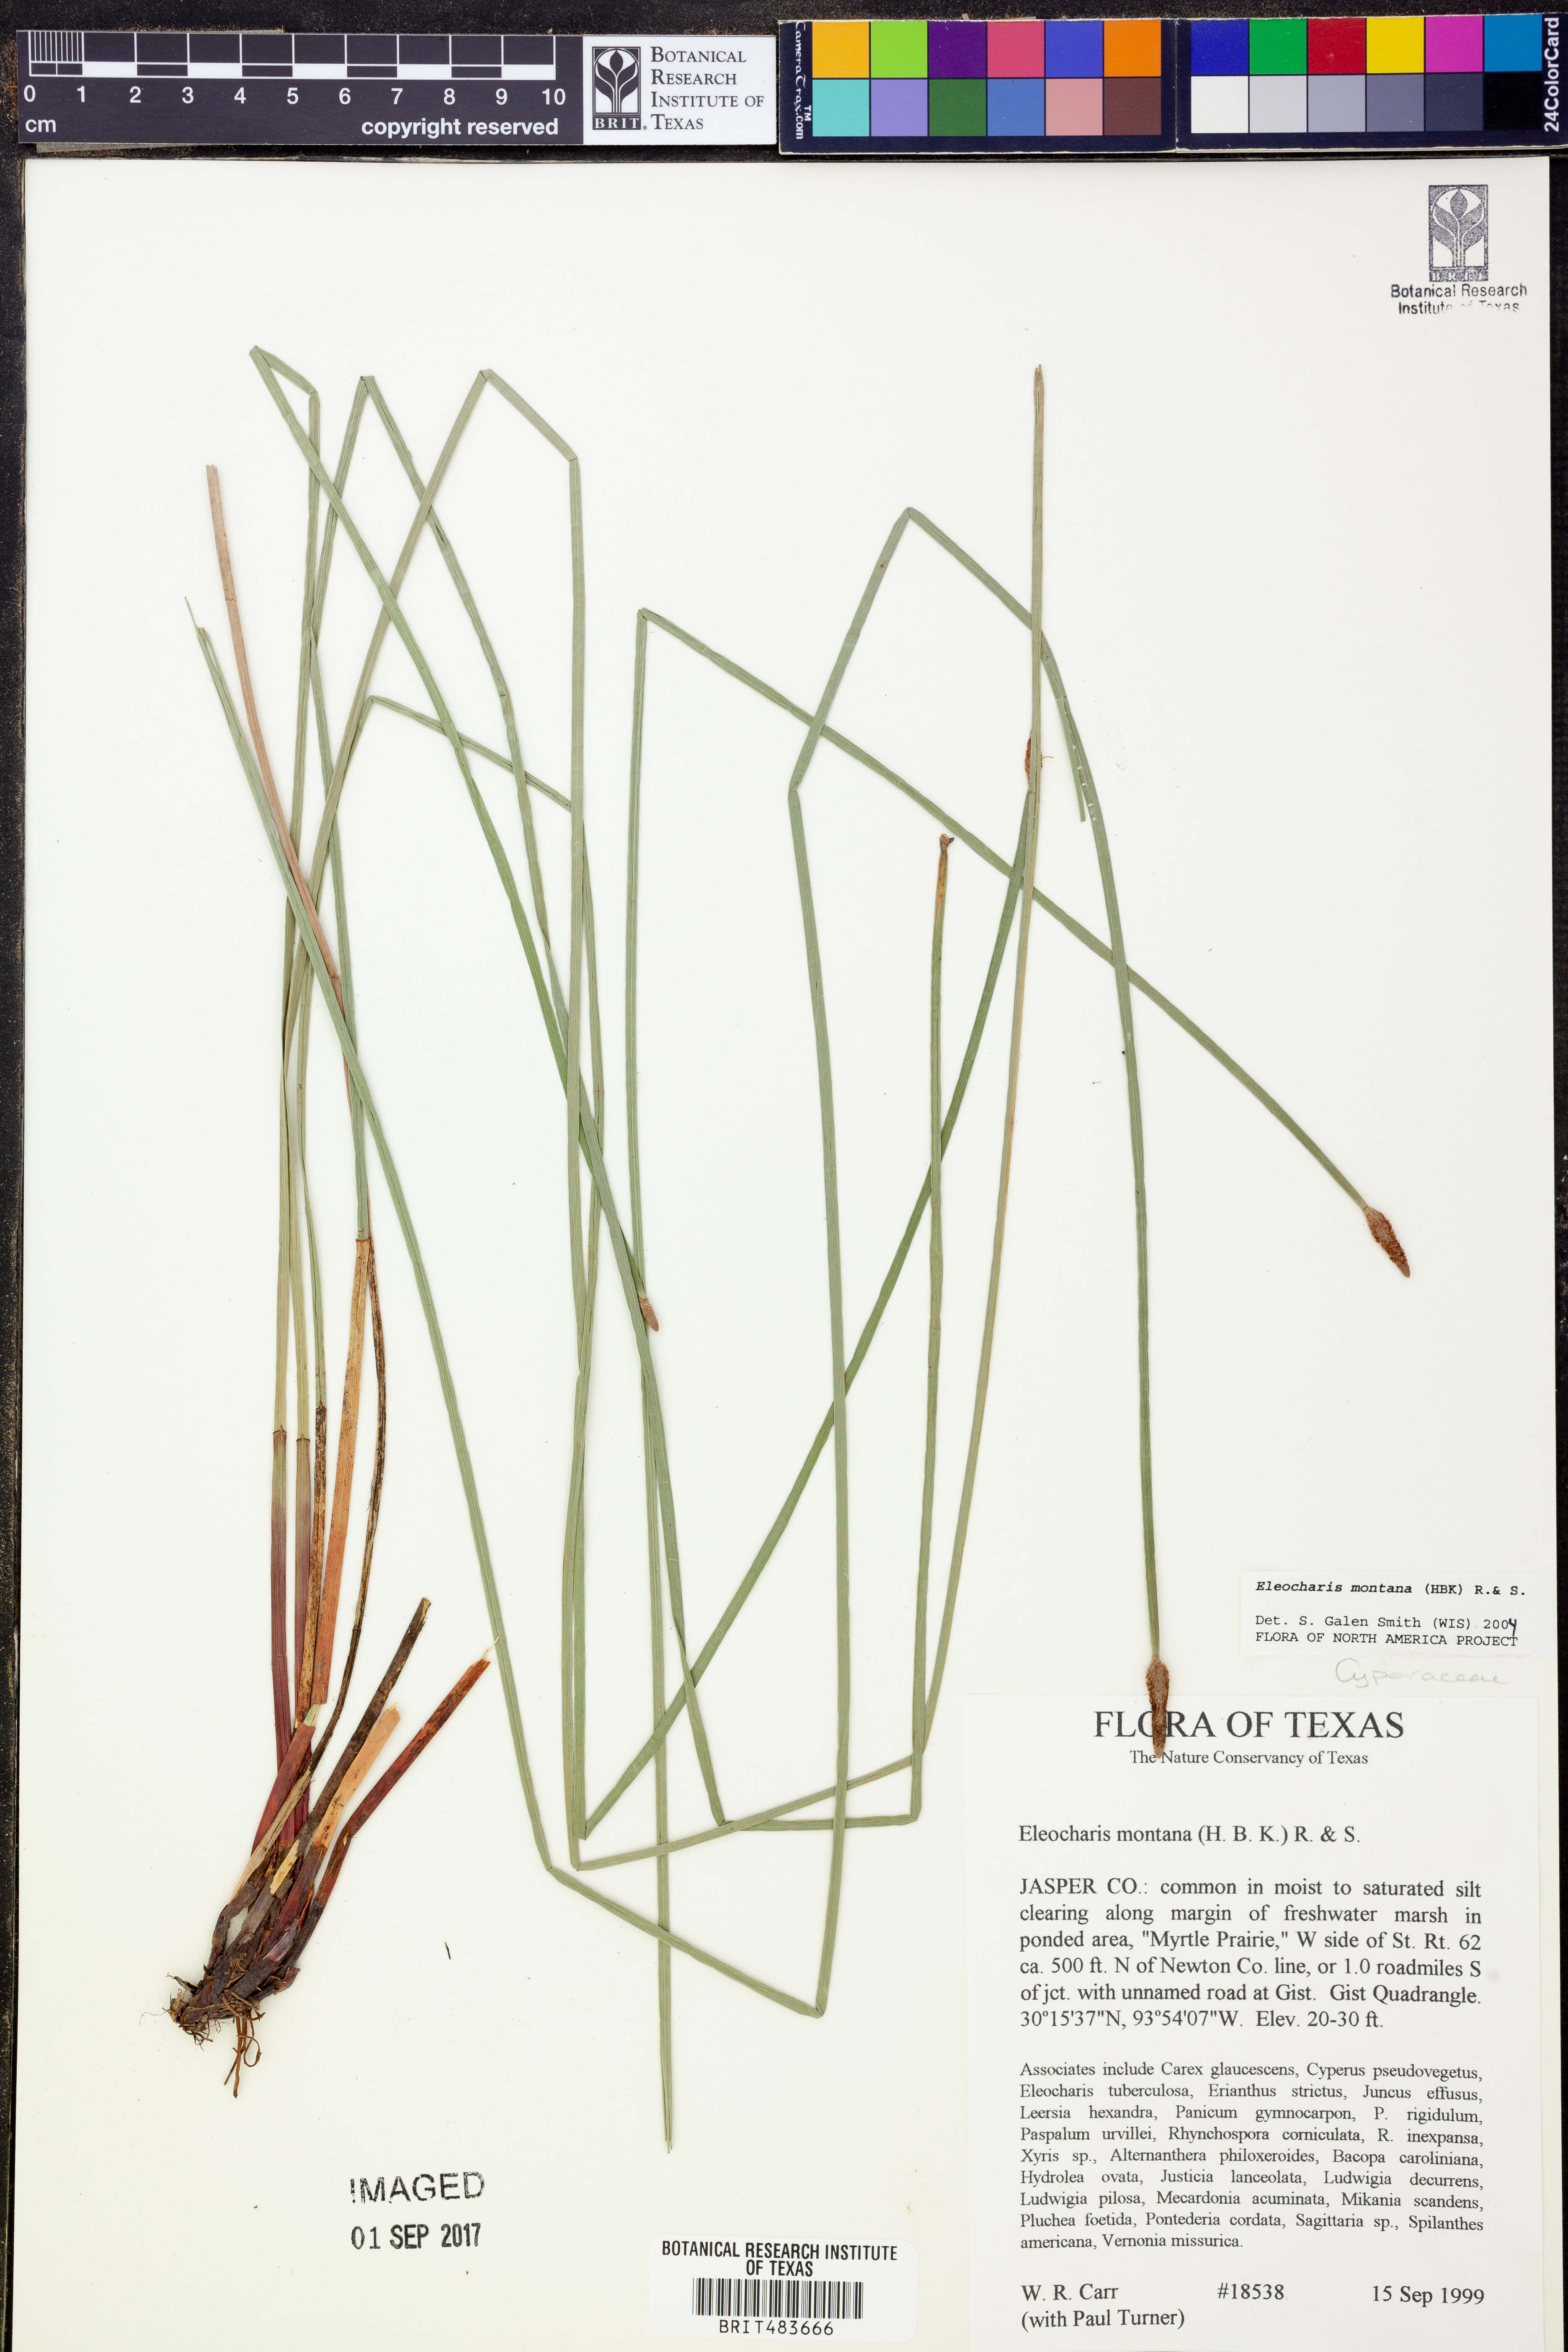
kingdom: Plantae
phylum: Tracheophyta
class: Liliopsida
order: Poales
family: Cyperaceae
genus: Eleocharis
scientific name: Eleocharis montana
